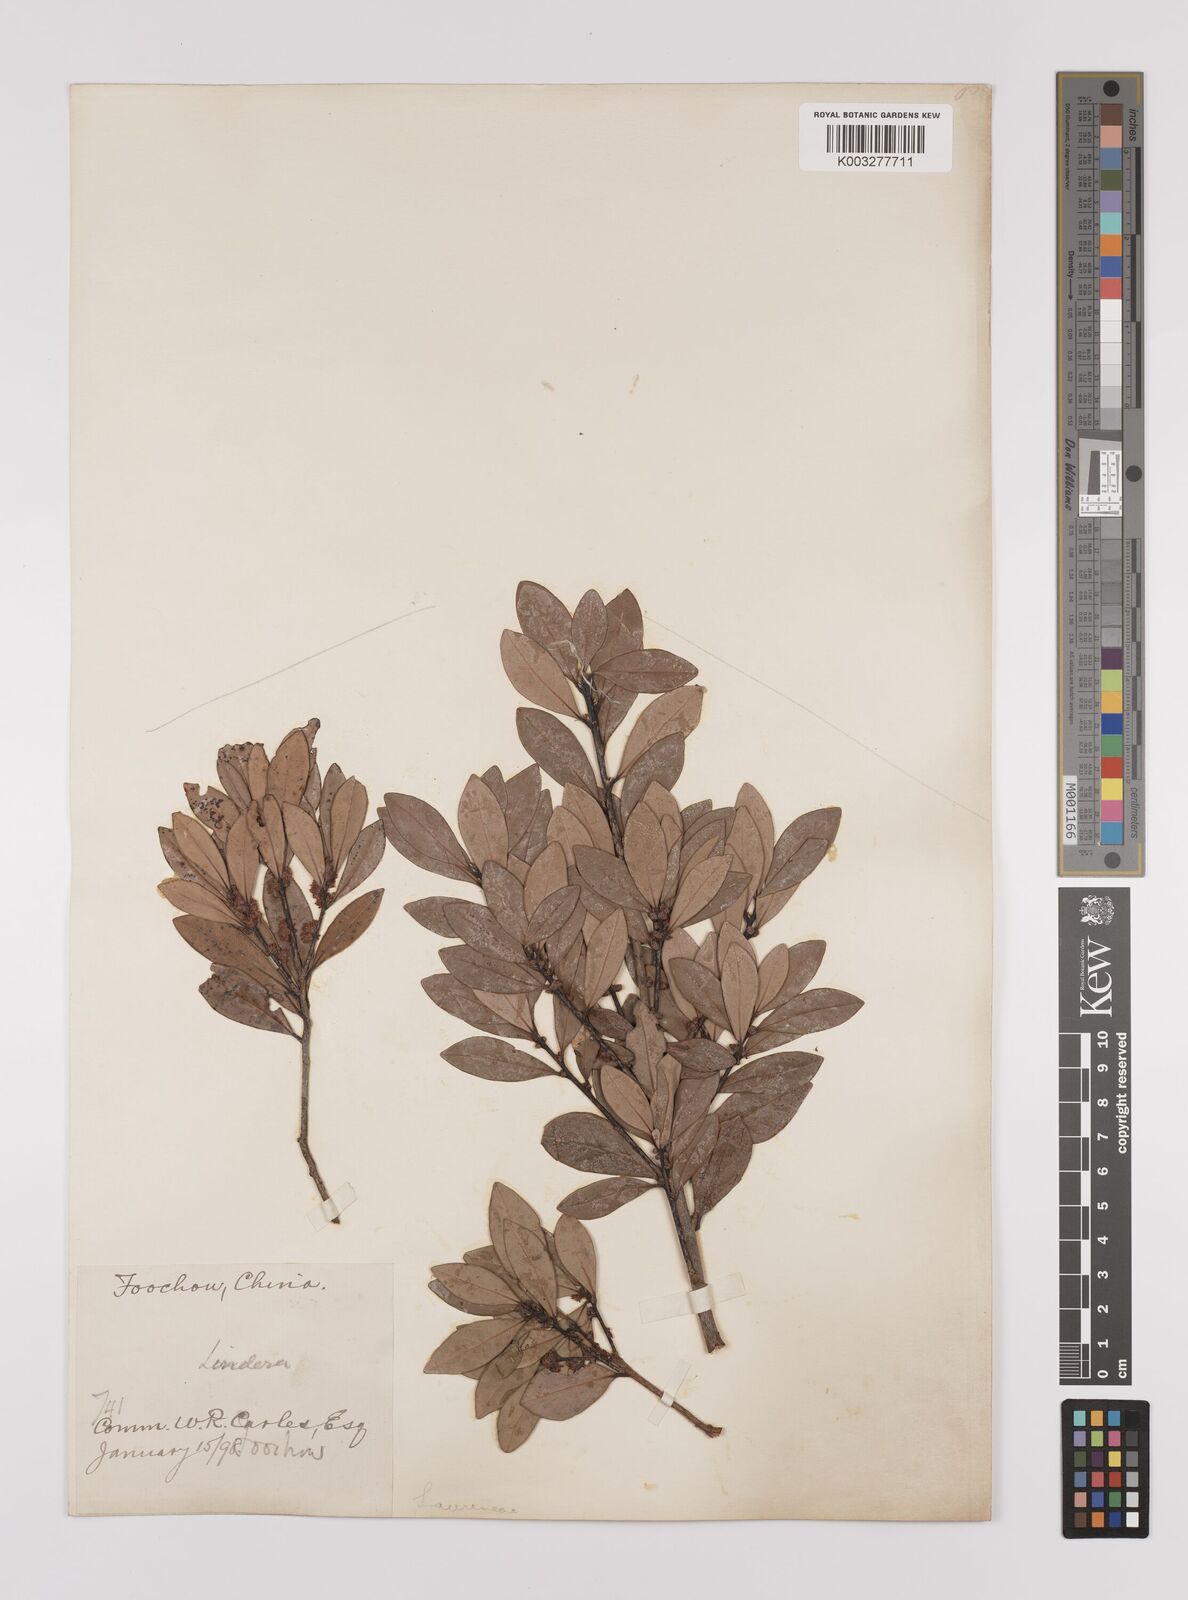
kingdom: Plantae
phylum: Tracheophyta
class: Magnoliopsida
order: Laurales
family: Lauraceae
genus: Litsea
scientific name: Litsea rotundifolia
